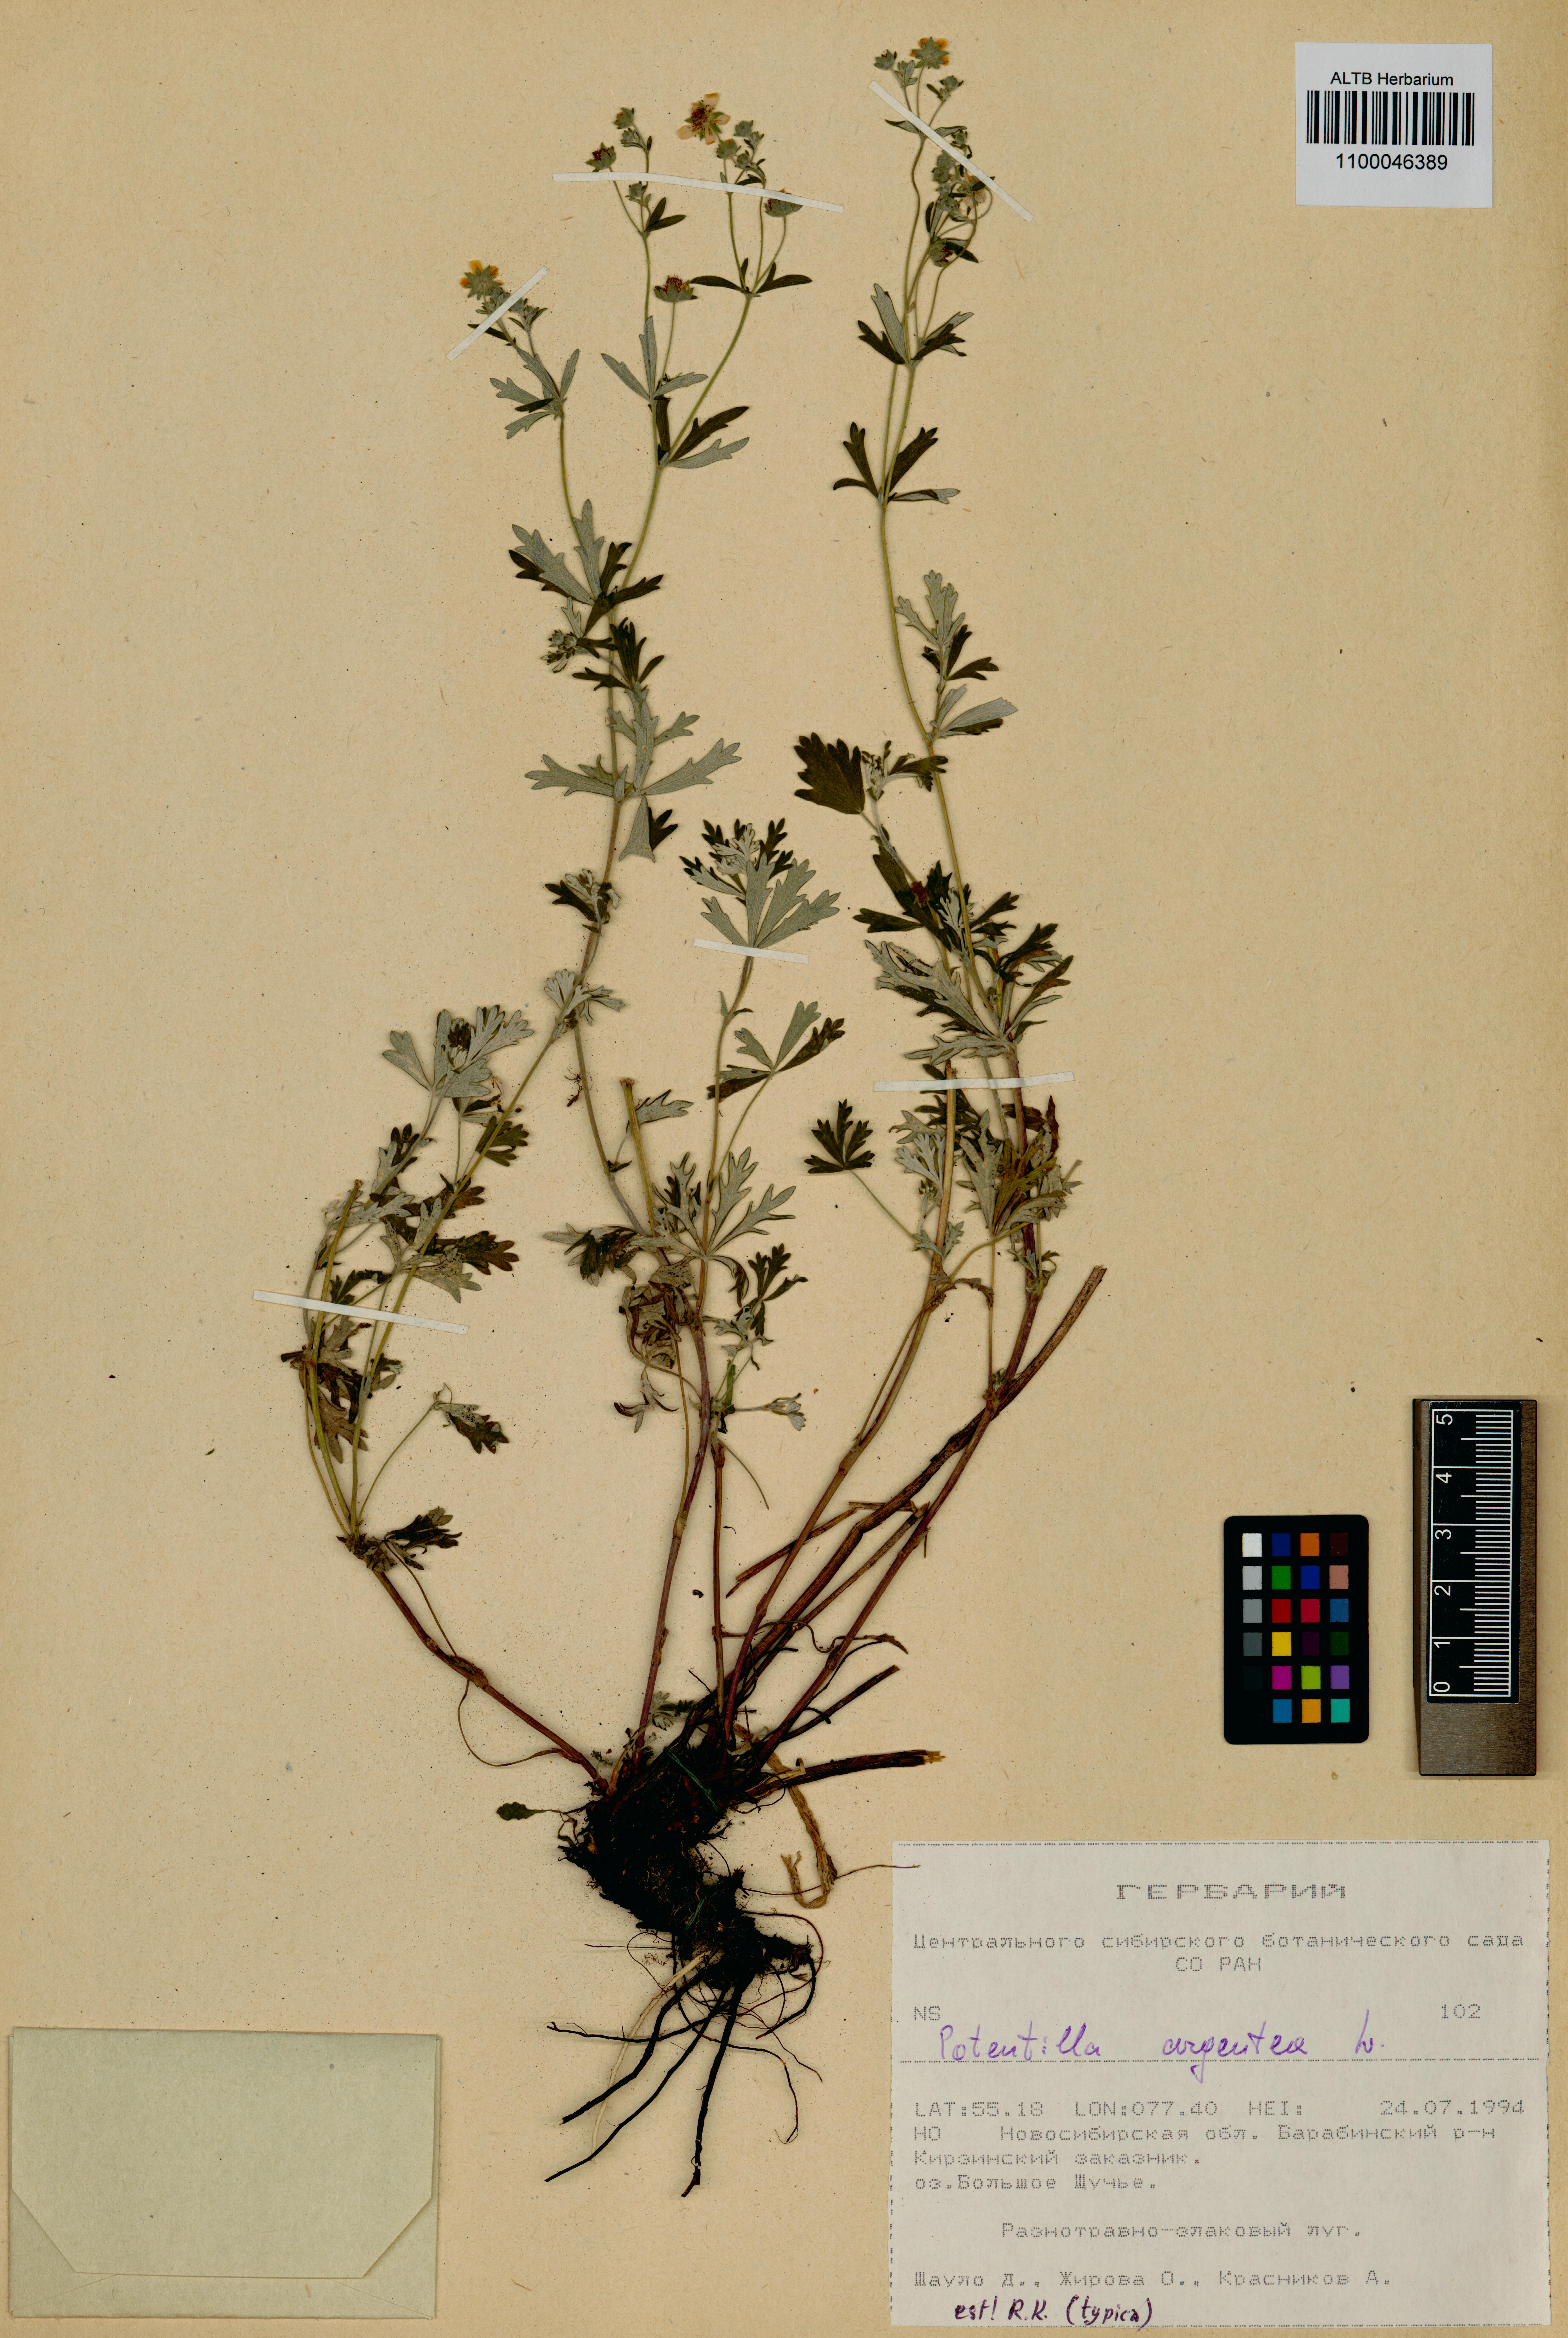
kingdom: Plantae
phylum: Tracheophyta
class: Magnoliopsida
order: Rosales
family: Rosaceae
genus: Potentilla
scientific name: Potentilla argentea
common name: Hoary cinquefoil
